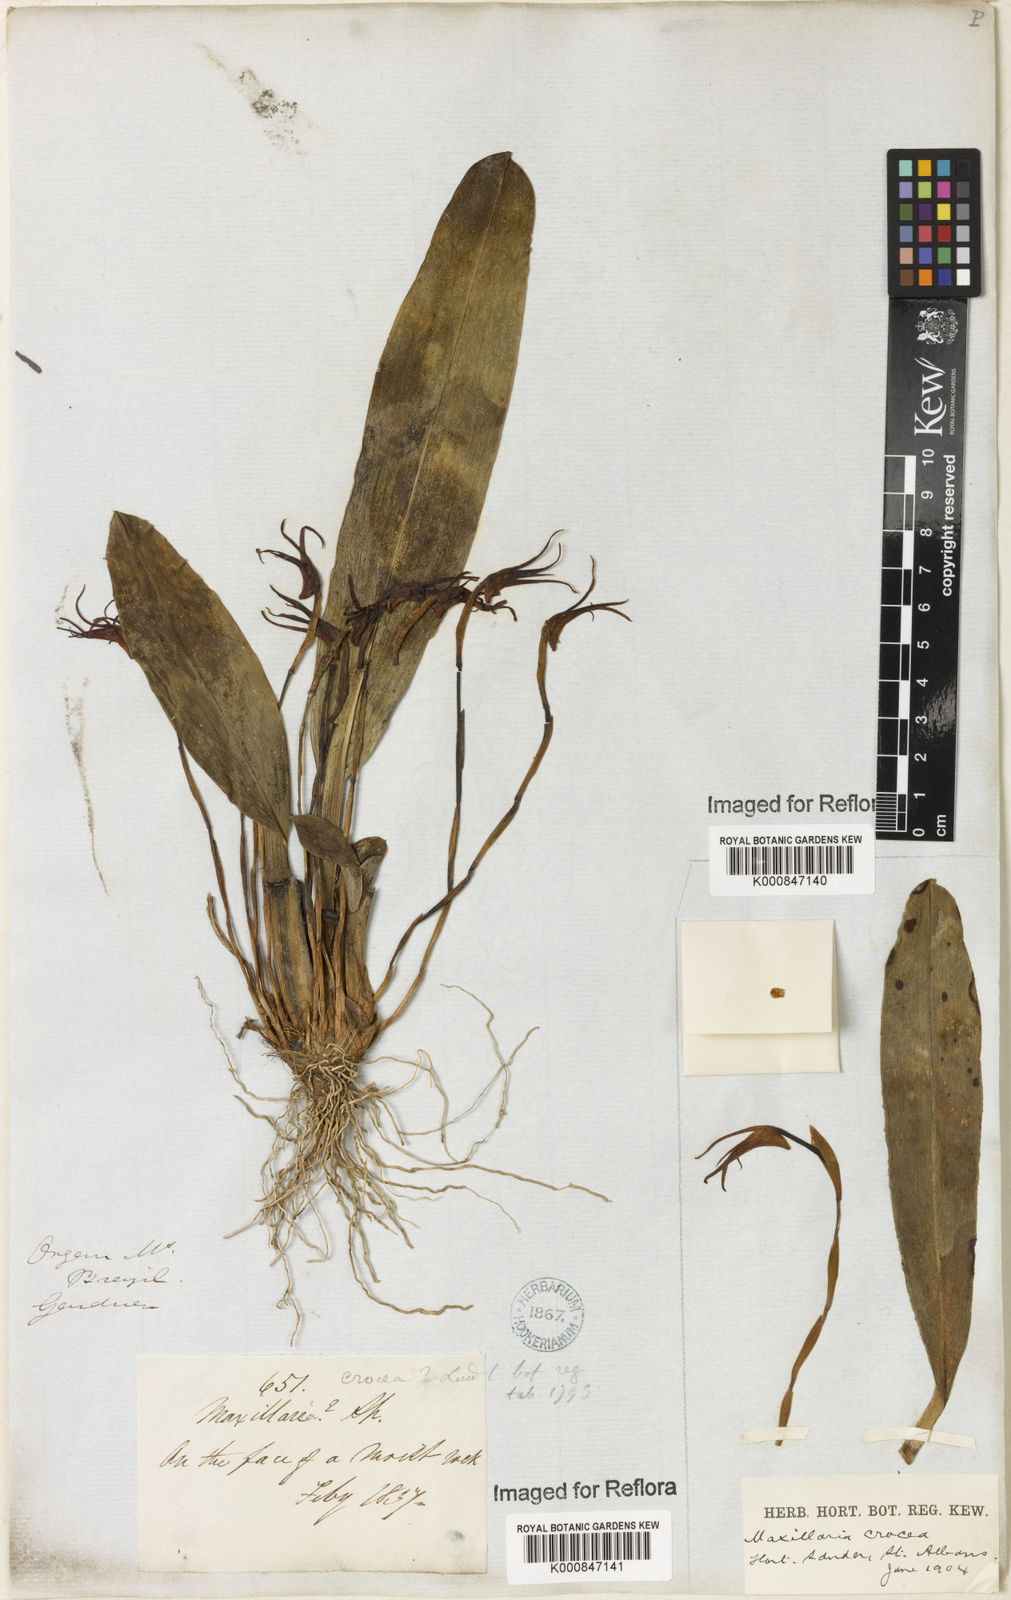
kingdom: Plantae
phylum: Tracheophyta
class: Liliopsida
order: Asparagales
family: Orchidaceae
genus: Maxillaria
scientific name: Maxillaria crocea
